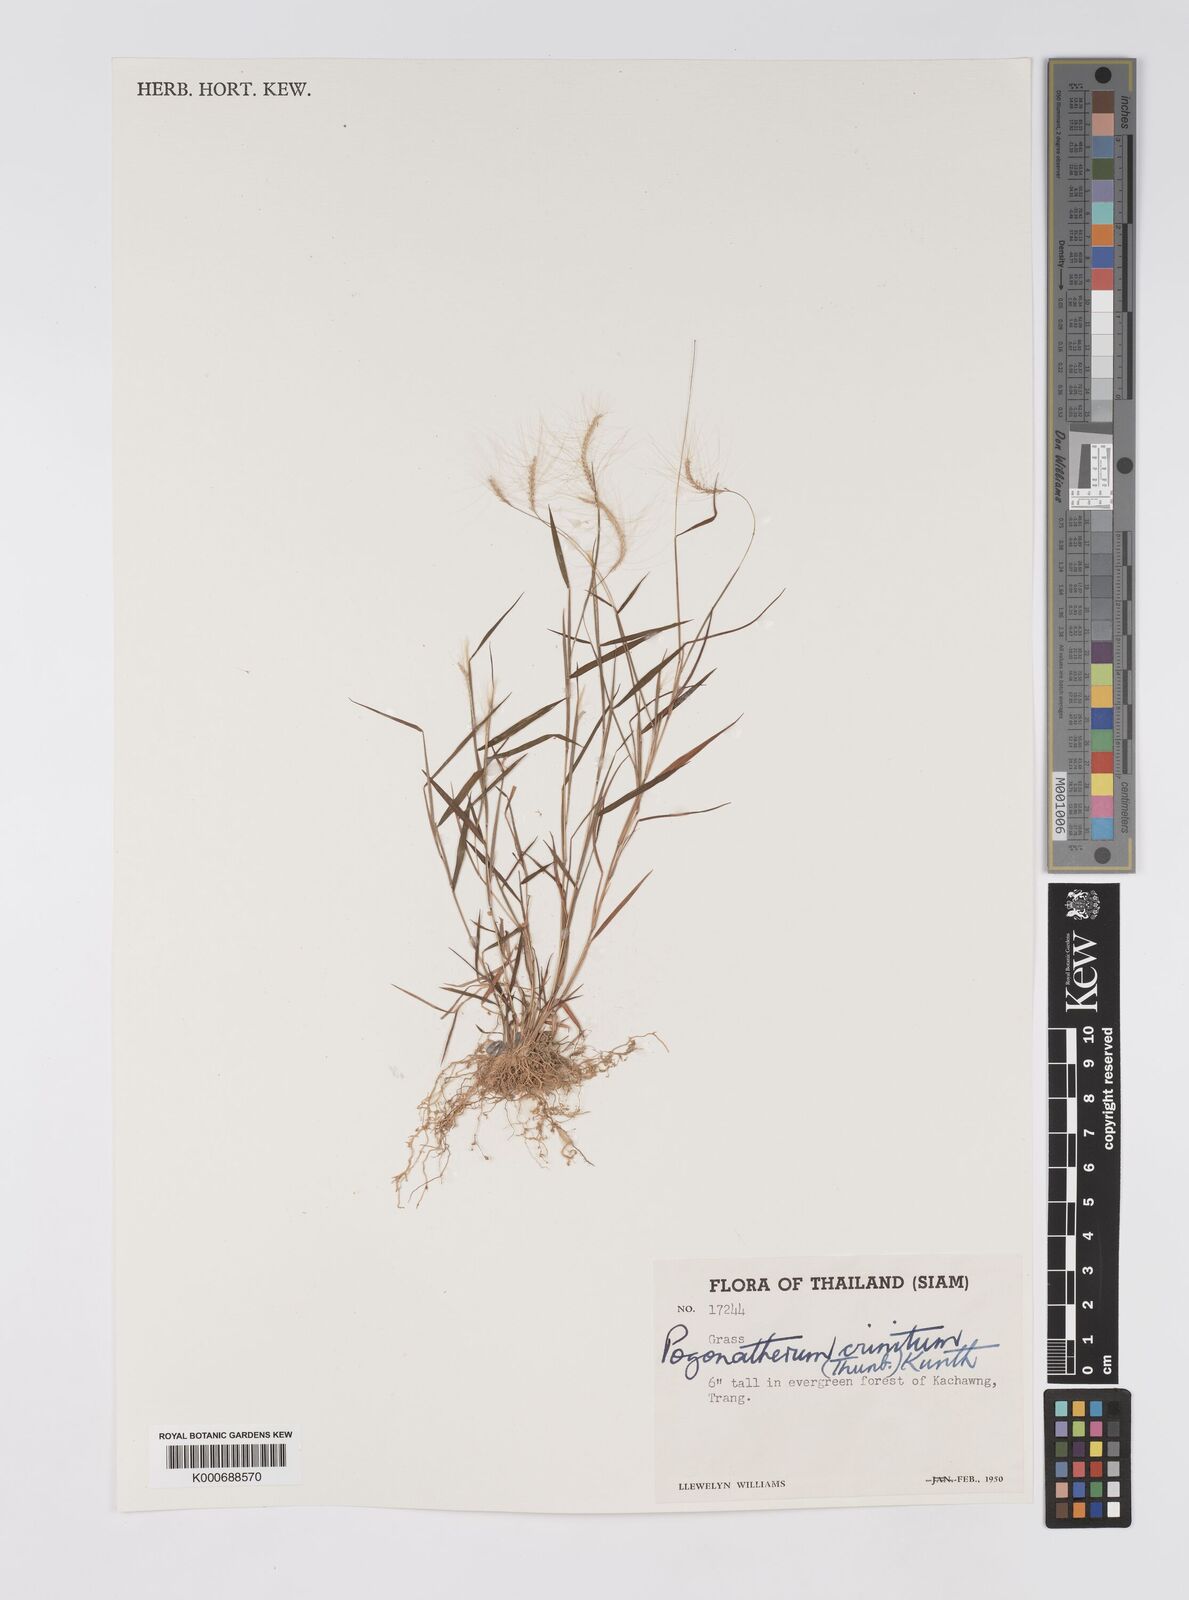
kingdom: Plantae
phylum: Tracheophyta
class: Liliopsida
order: Poales
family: Poaceae
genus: Pogonatherum
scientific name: Pogonatherum crinitum
